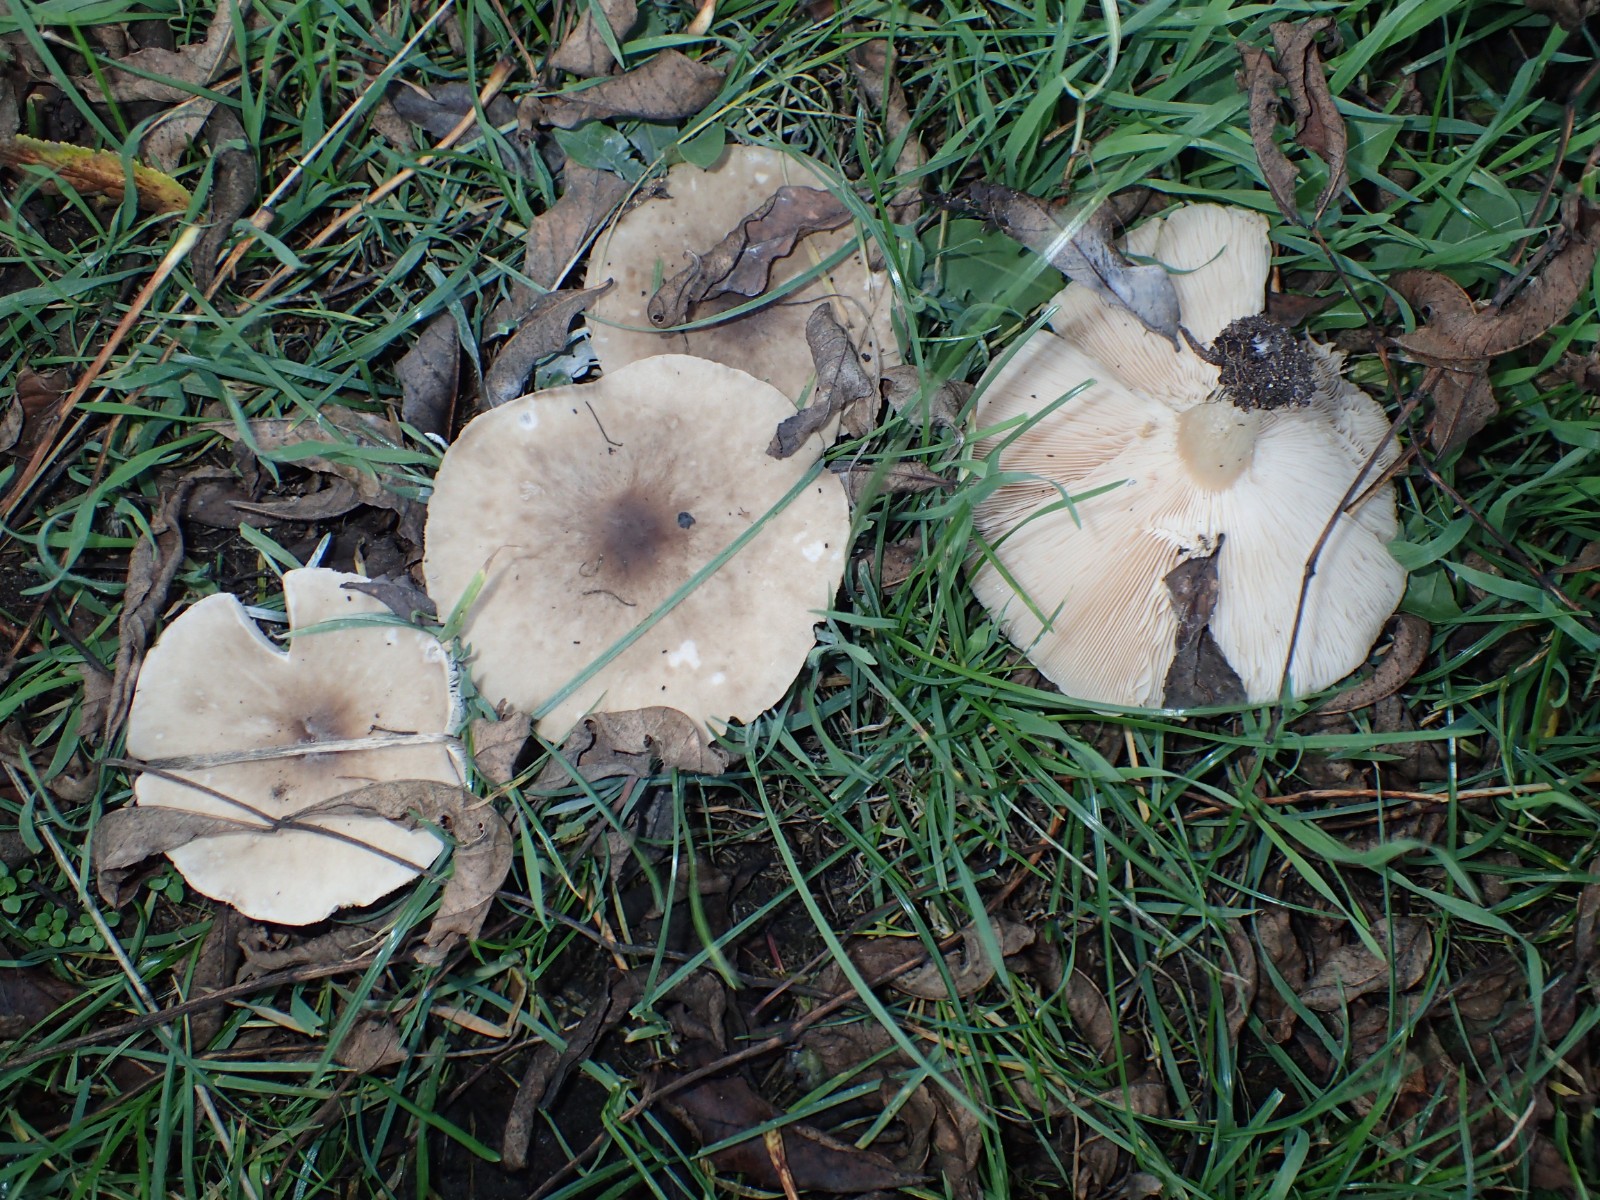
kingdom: Fungi
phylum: Basidiomycota
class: Agaricomycetes
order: Agaricales
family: Tricholomataceae
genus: Melanoleuca
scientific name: Melanoleuca
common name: munkehat
